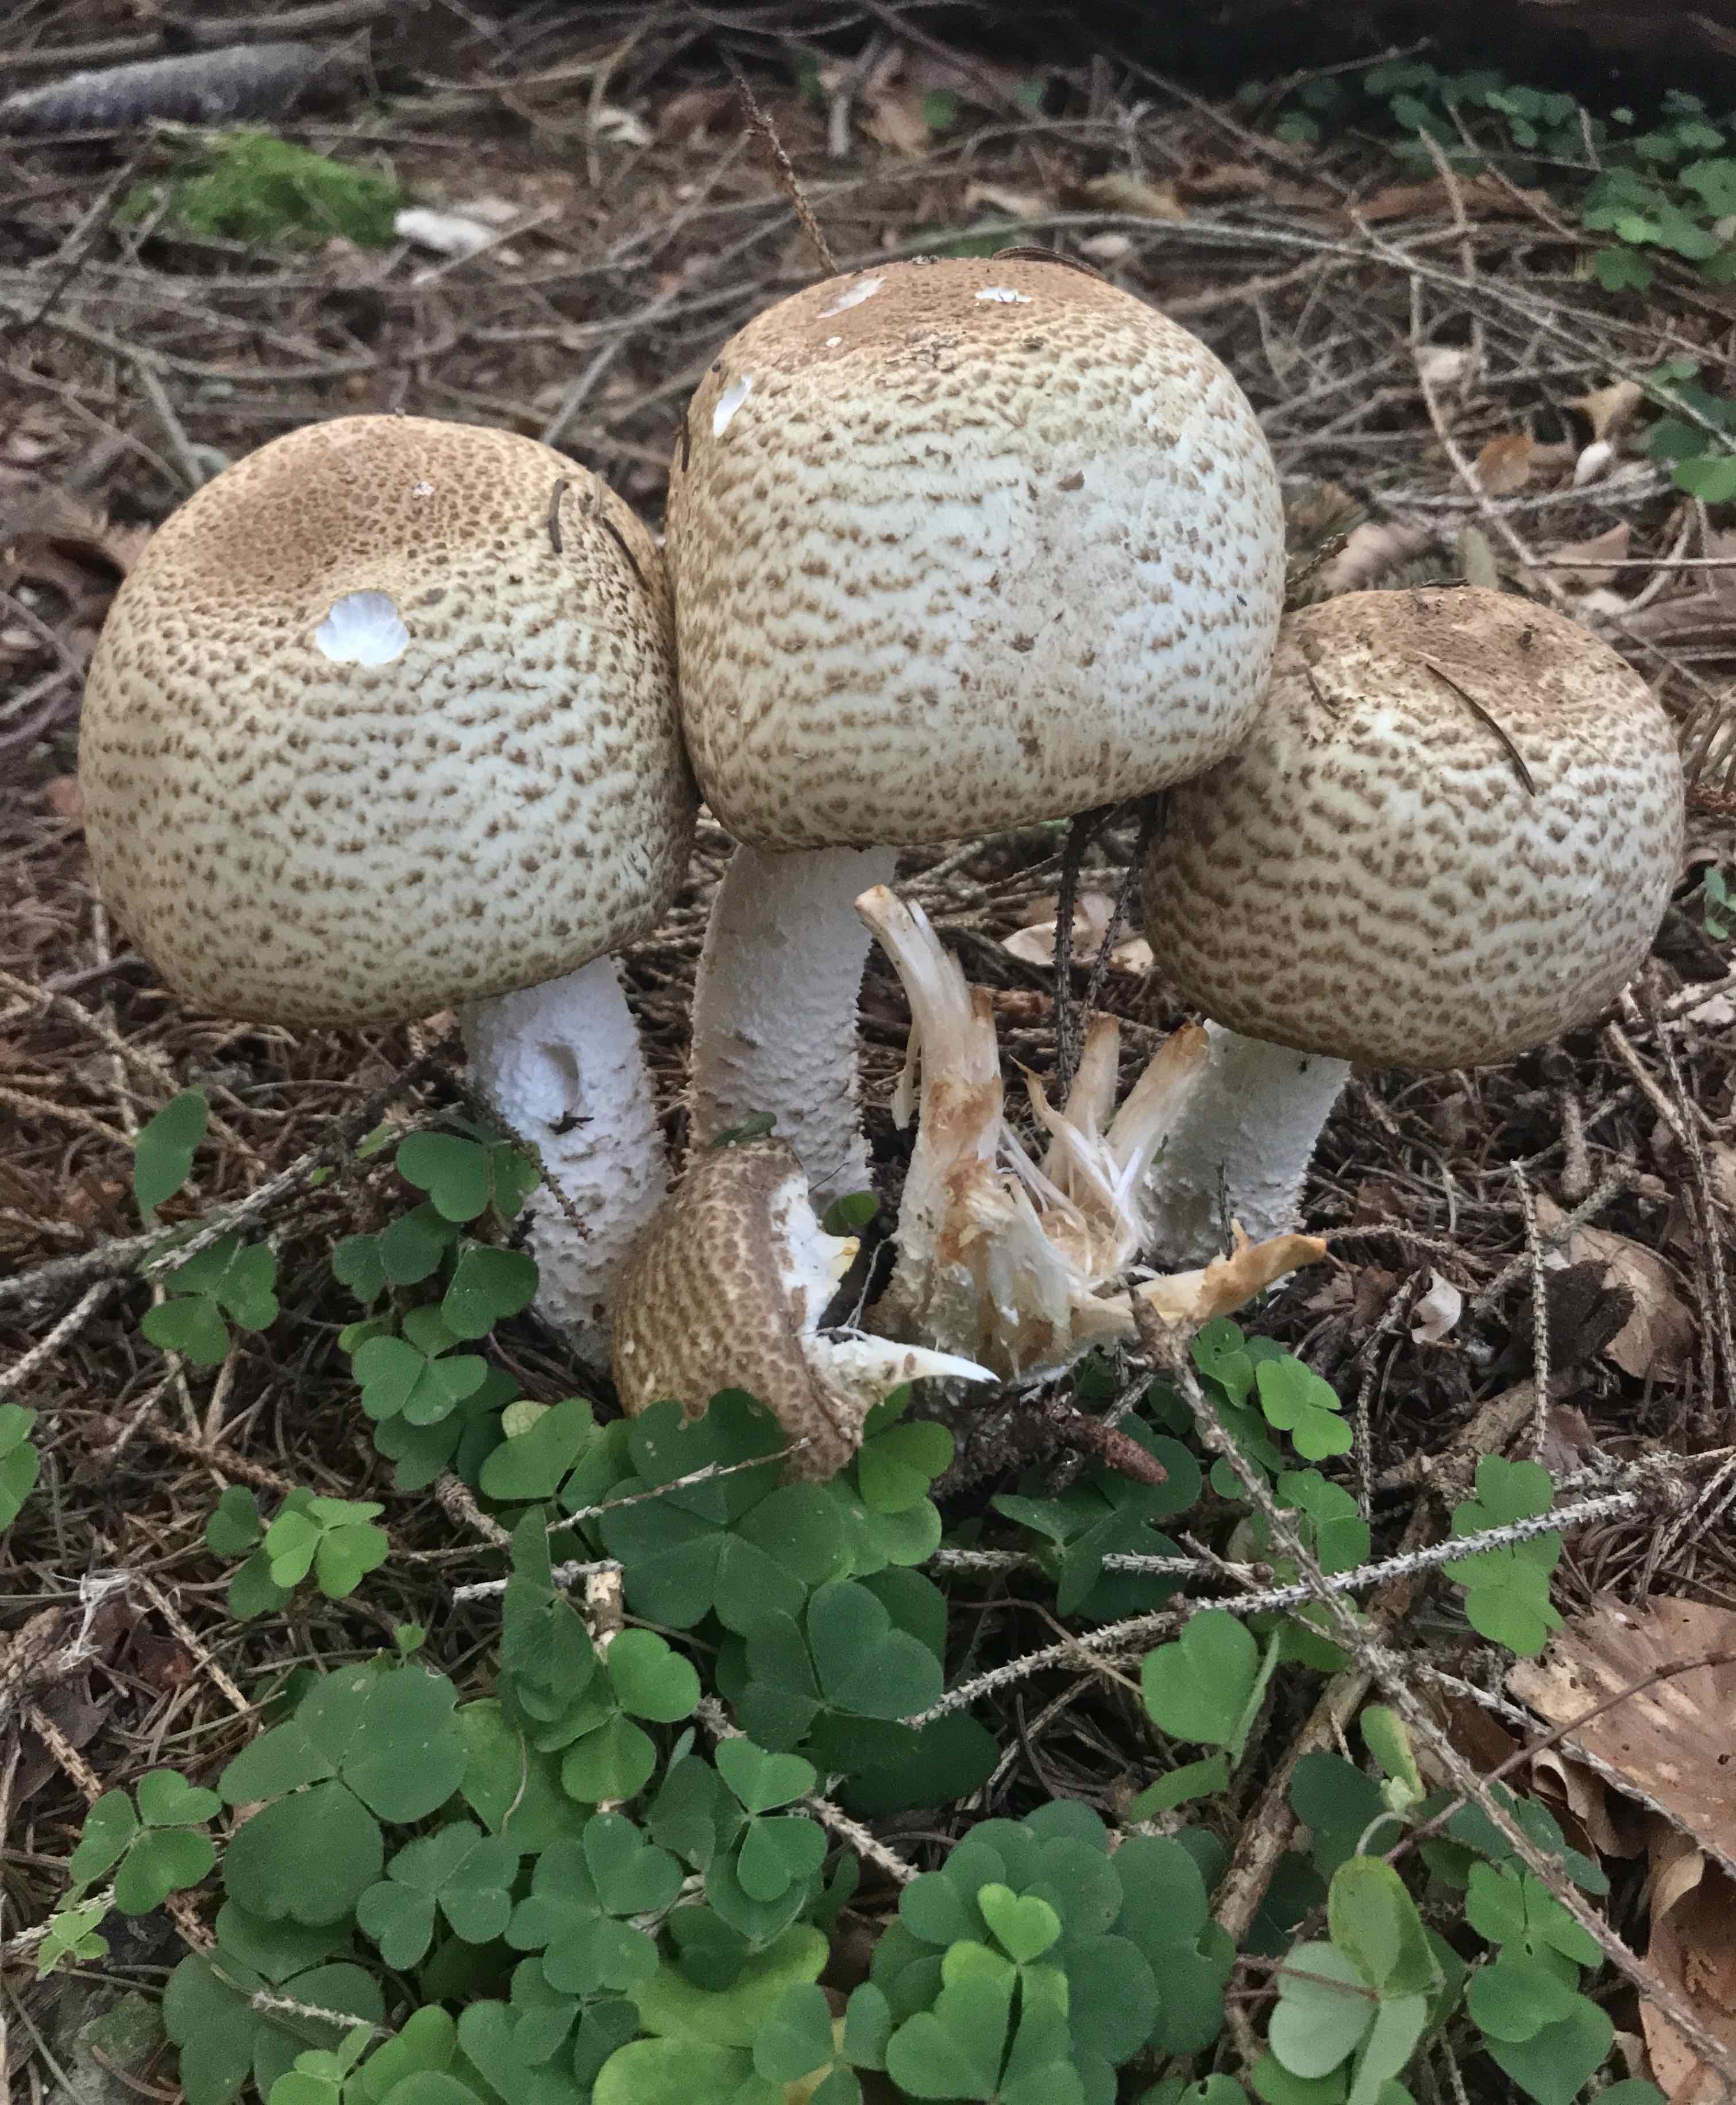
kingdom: Fungi
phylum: Basidiomycota
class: Agaricomycetes
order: Agaricales
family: Agaricaceae
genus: Agaricus
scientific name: Agaricus augustus
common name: prægtig champignon
